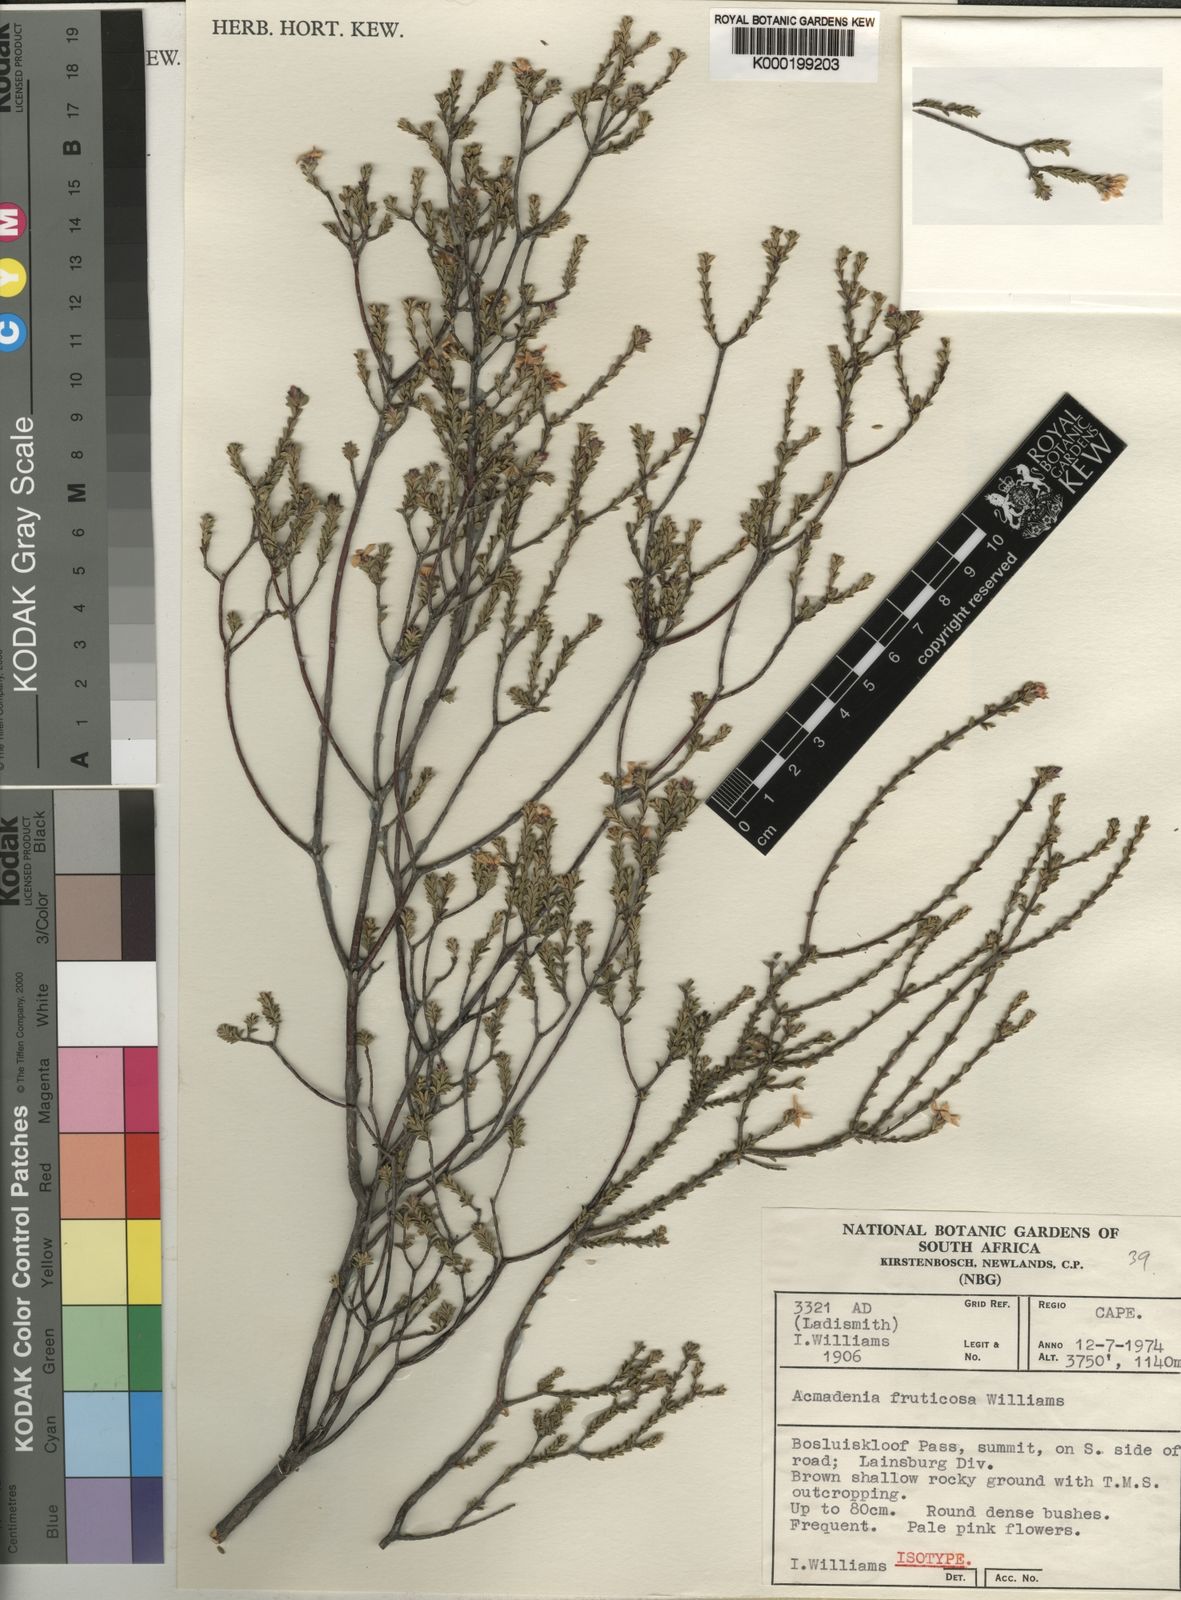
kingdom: Plantae
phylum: Tracheophyta
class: Magnoliopsida
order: Sapindales
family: Rutaceae
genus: Acmadenia
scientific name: Acmadenia fruticosa
